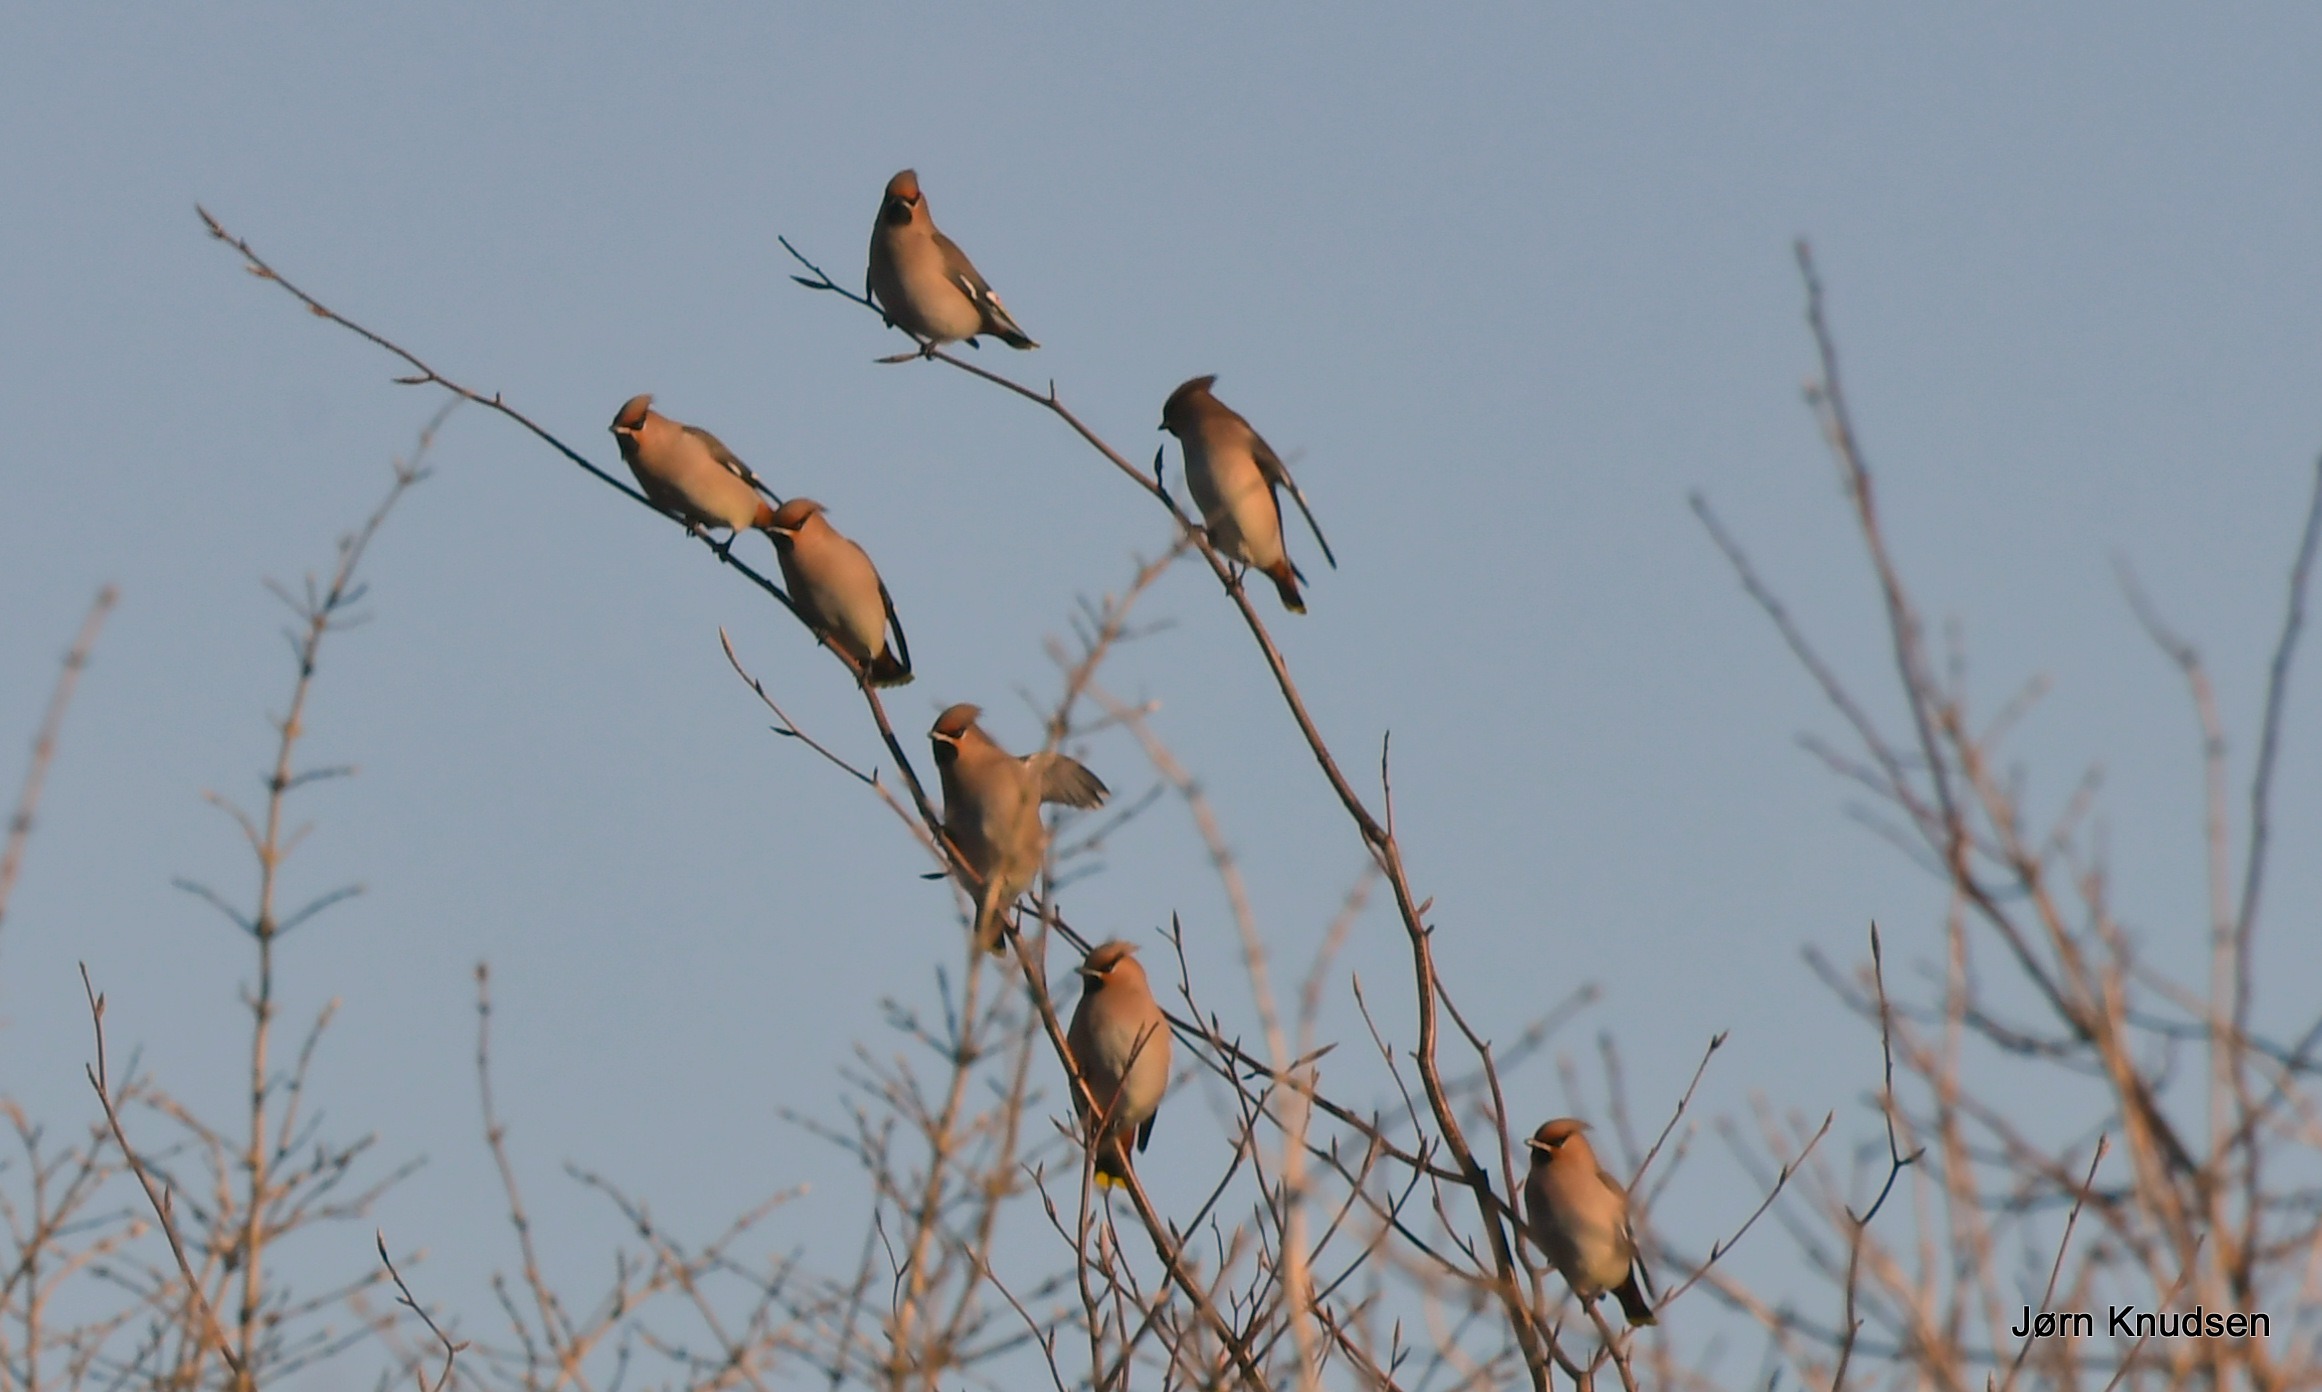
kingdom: Animalia
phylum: Chordata
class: Aves
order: Passeriformes
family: Bombycillidae
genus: Bombycilla
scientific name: Bombycilla garrulus
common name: Silkehale
